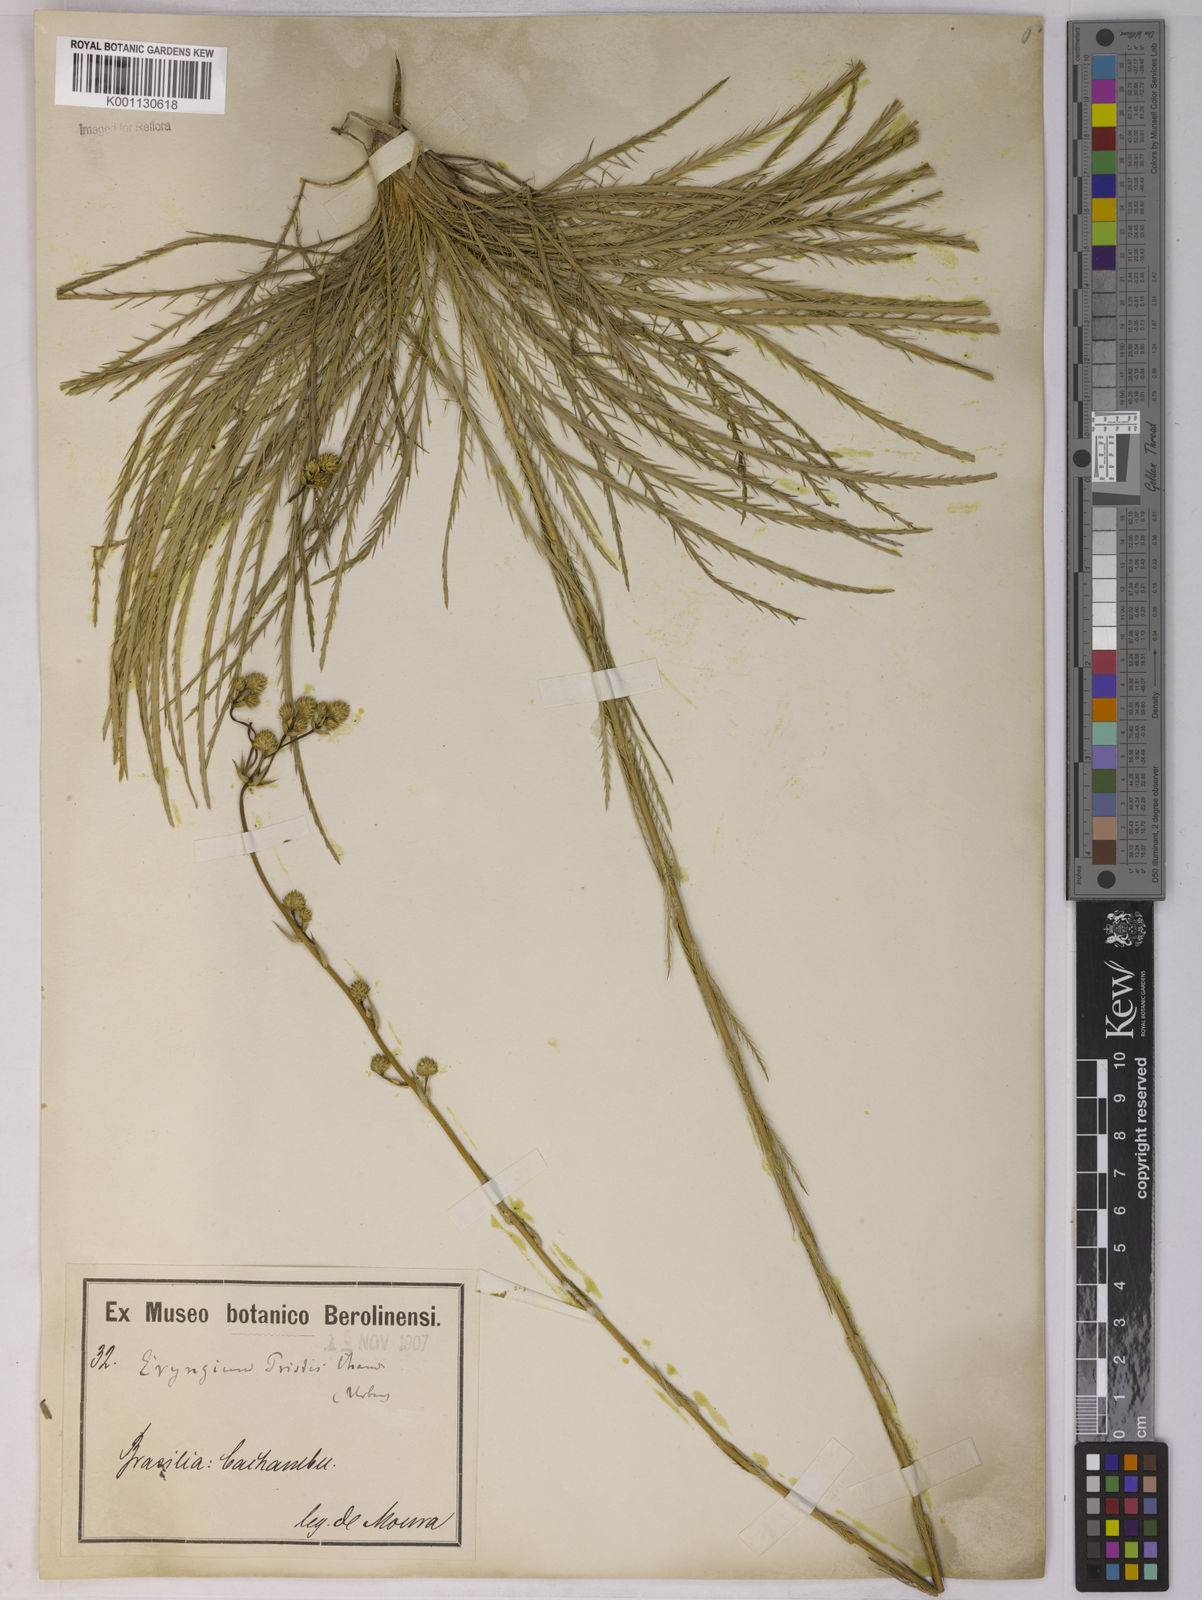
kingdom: Plantae
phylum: Tracheophyta
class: Magnoliopsida
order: Apiales
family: Apiaceae
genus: Eryngium
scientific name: Eryngium pristis
